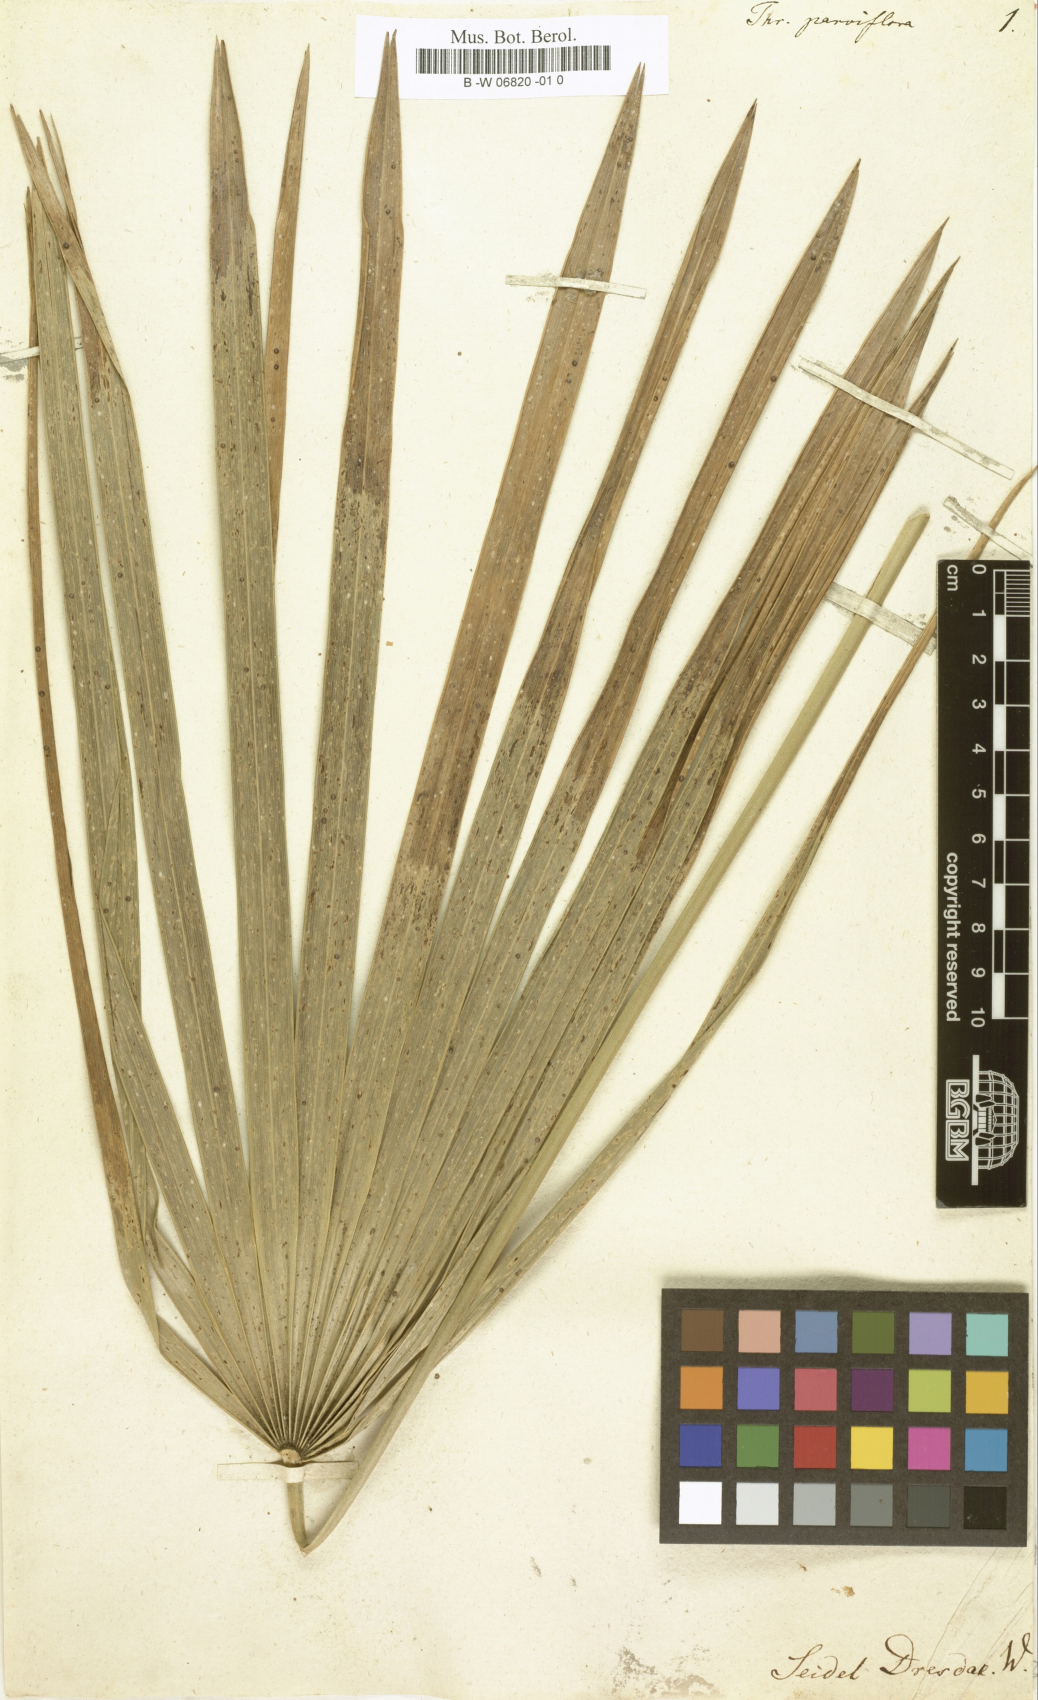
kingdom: Plantae
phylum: Tracheophyta
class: Liliopsida
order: Arecales
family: Arecaceae
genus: Thrinax
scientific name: Thrinax parviflora
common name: Broom palm
